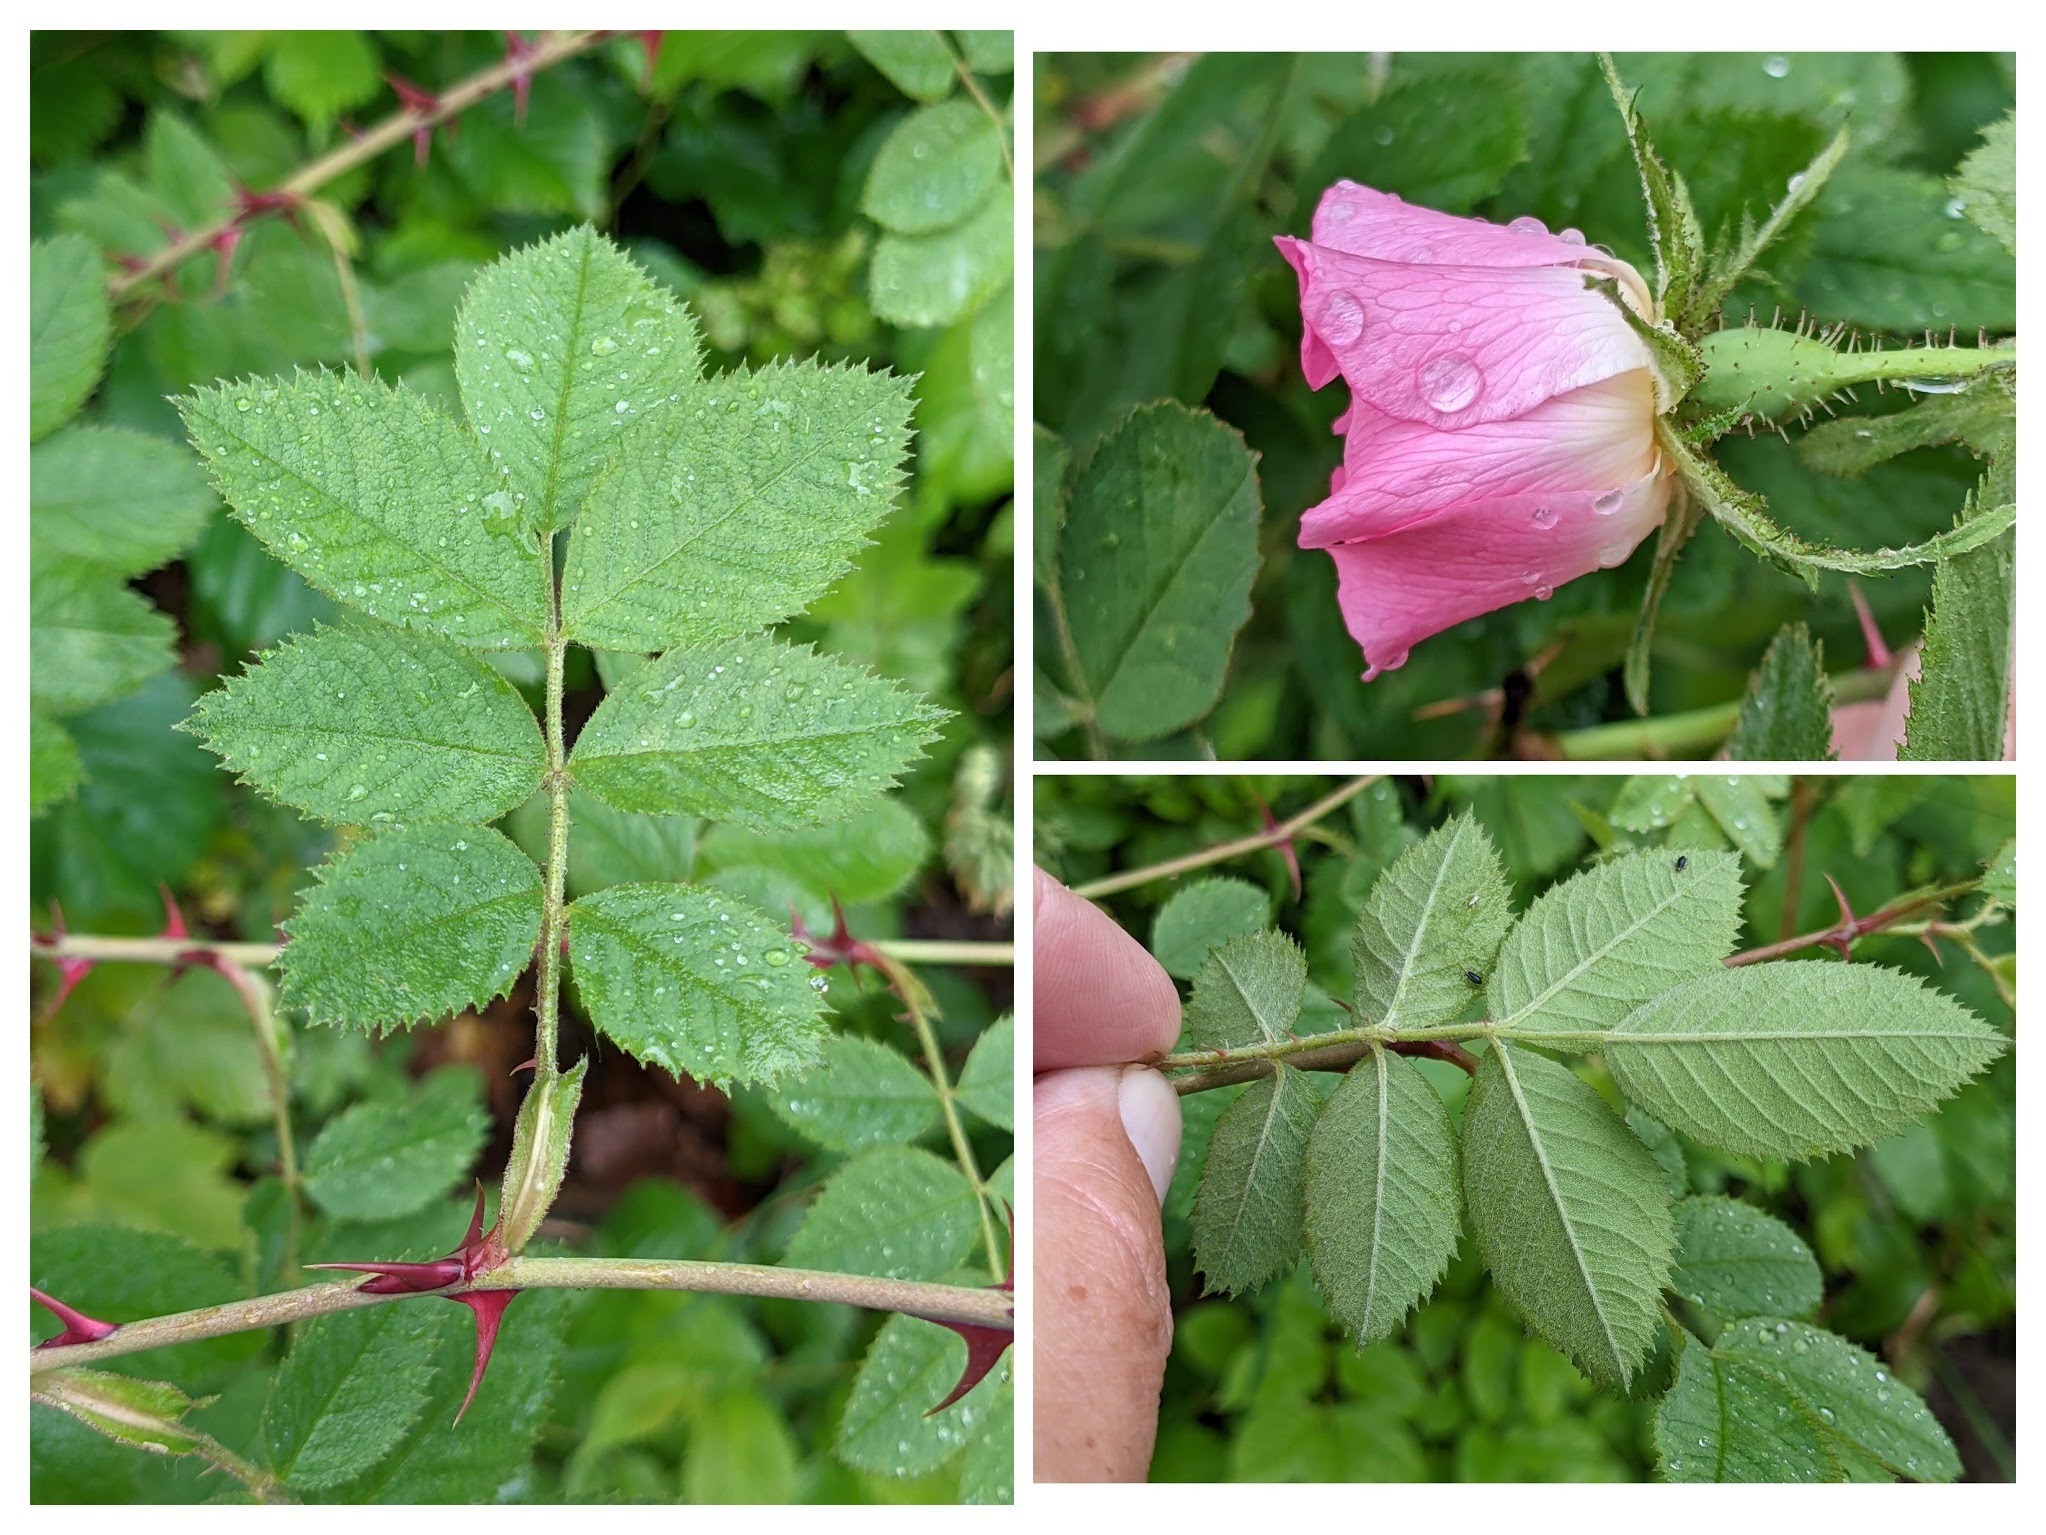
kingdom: Plantae
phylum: Tracheophyta
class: Magnoliopsida
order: Rosales
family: Rosaceae
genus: Rosa
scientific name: Rosa tomentosa
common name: Langstilket filt-rose
